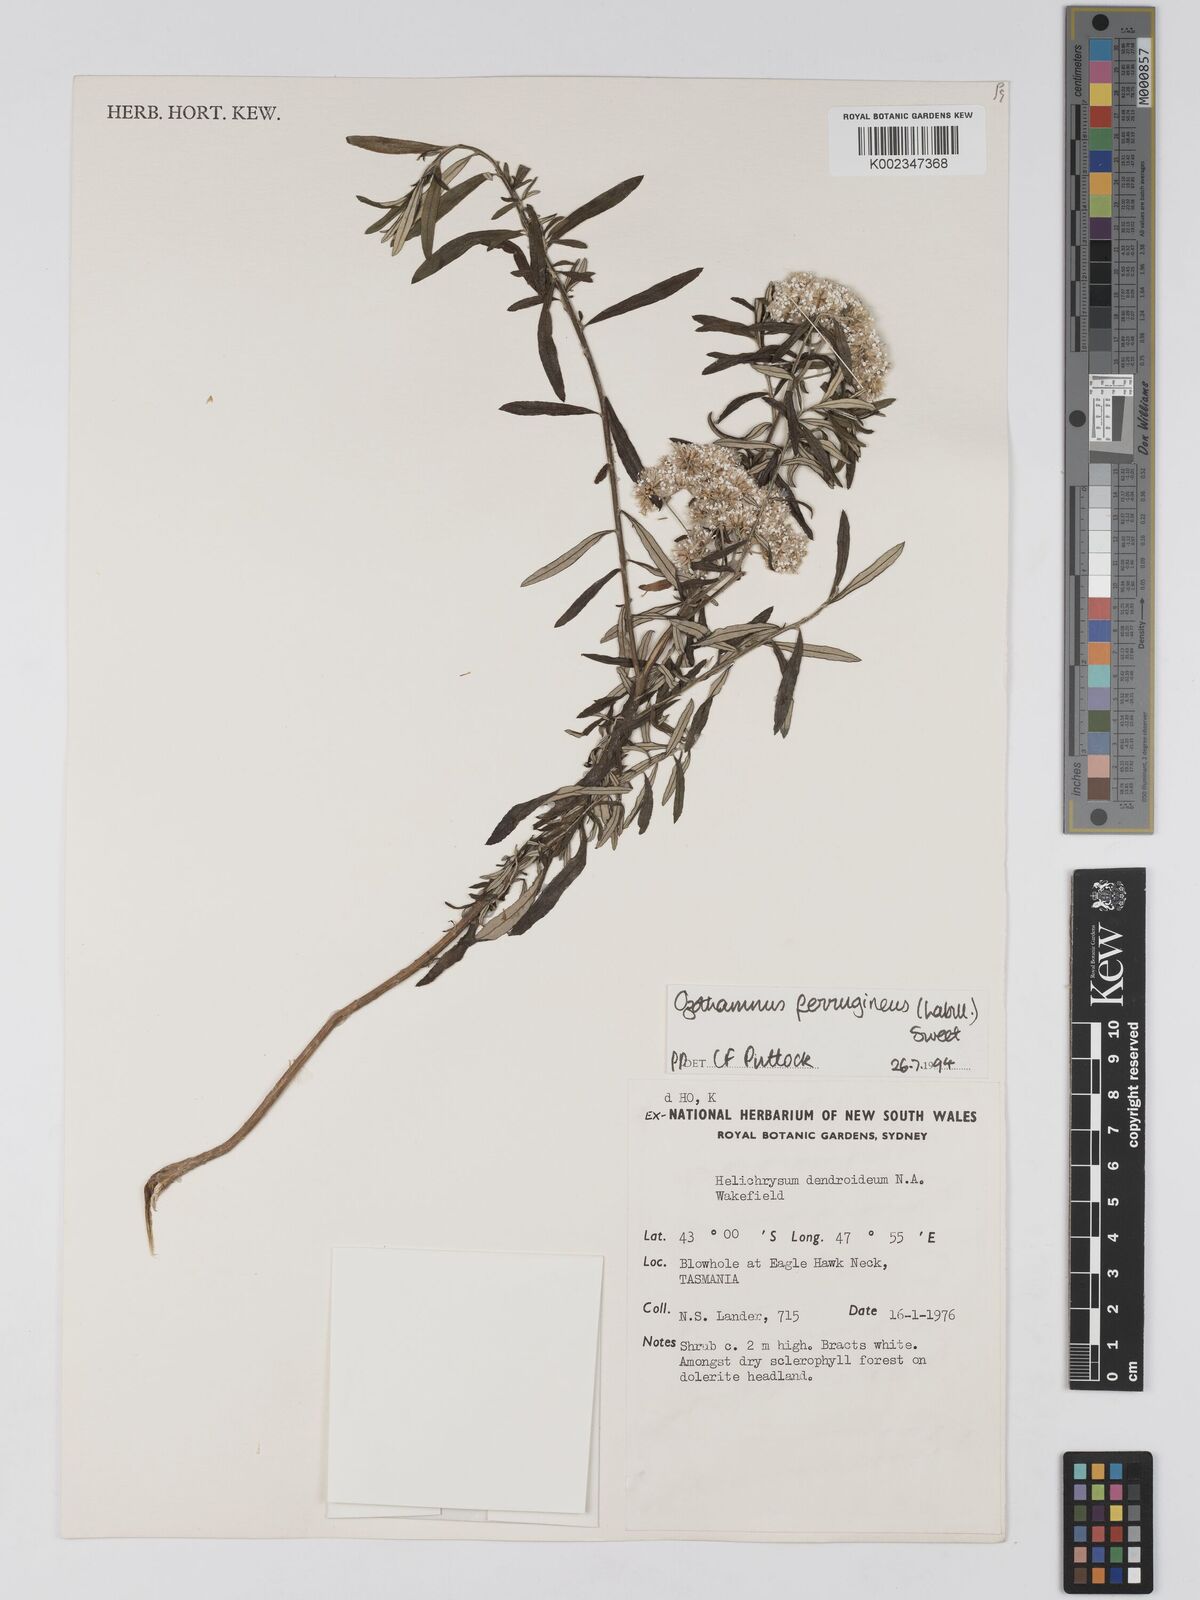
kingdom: Plantae
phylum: Tracheophyta
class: Magnoliopsida
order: Asterales
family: Asteraceae
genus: Ozothamnus
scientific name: Ozothamnus ferrugineus
